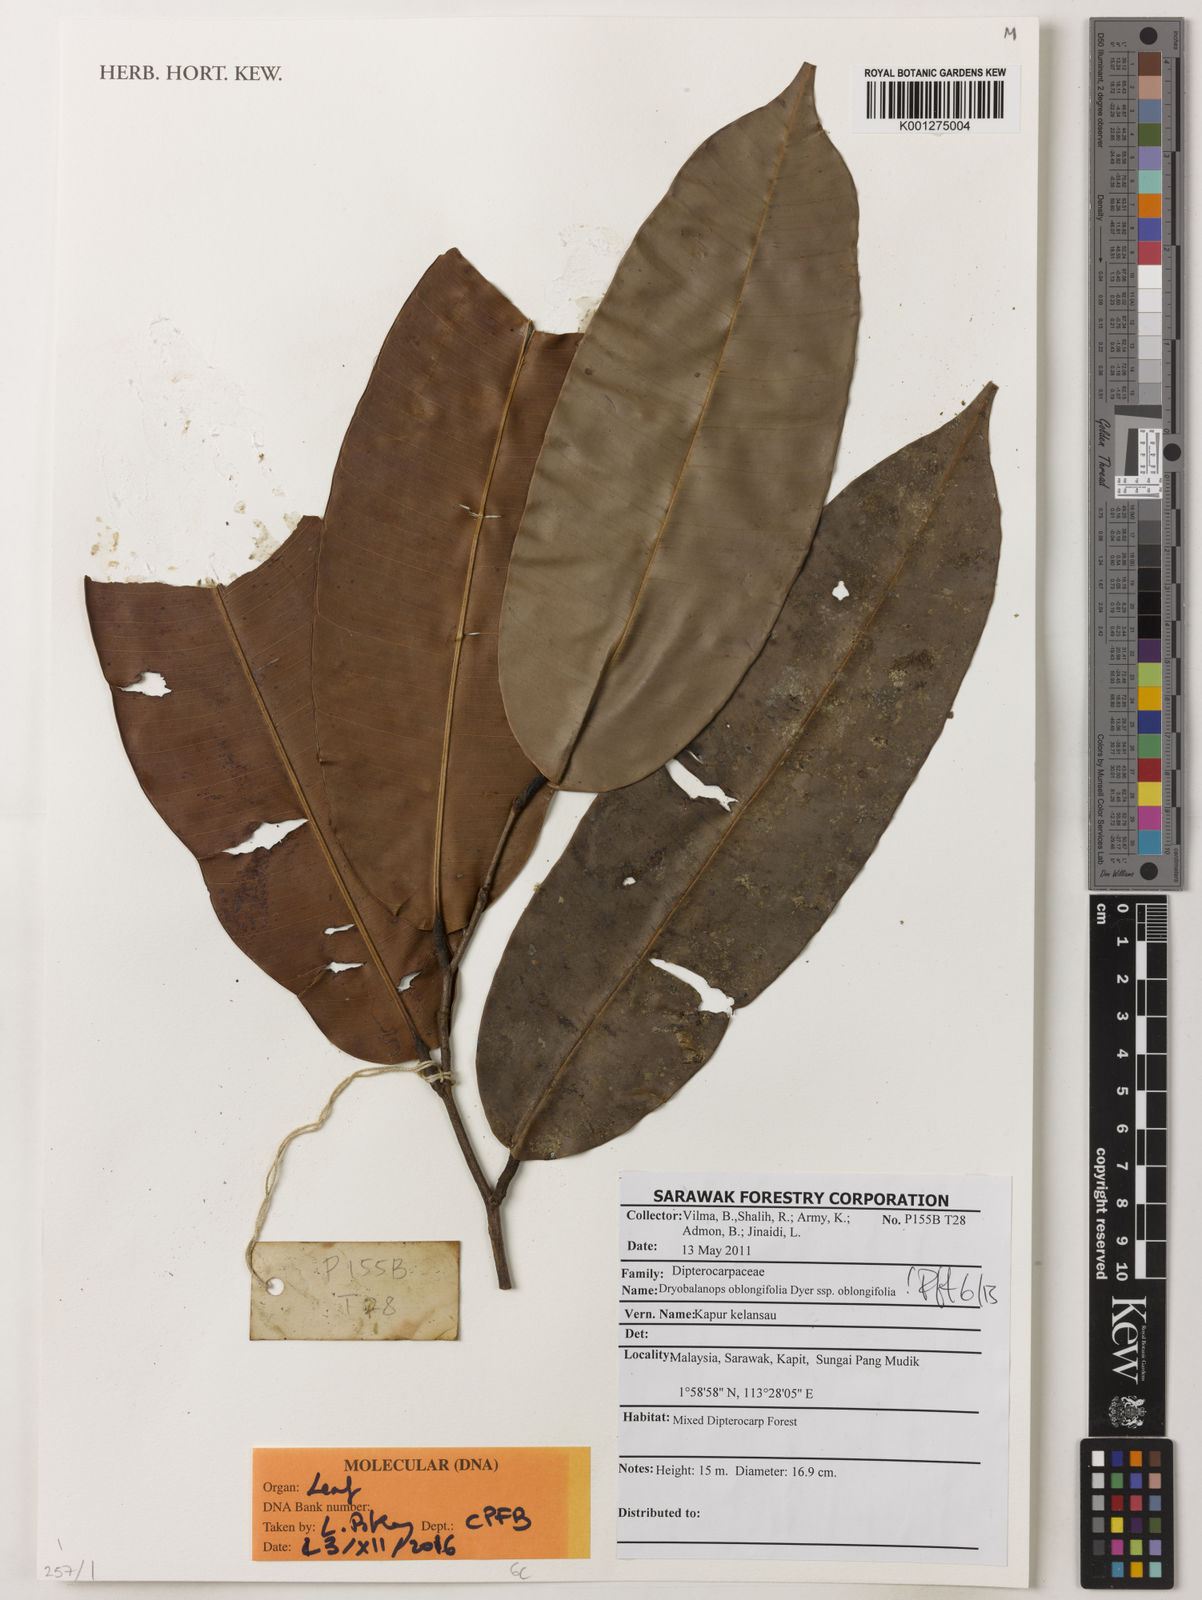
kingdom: Plantae
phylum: Tracheophyta
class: Magnoliopsida
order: Malvales
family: Dipterocarpaceae
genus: Dryobalanops
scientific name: Dryobalanops oblongifolia
